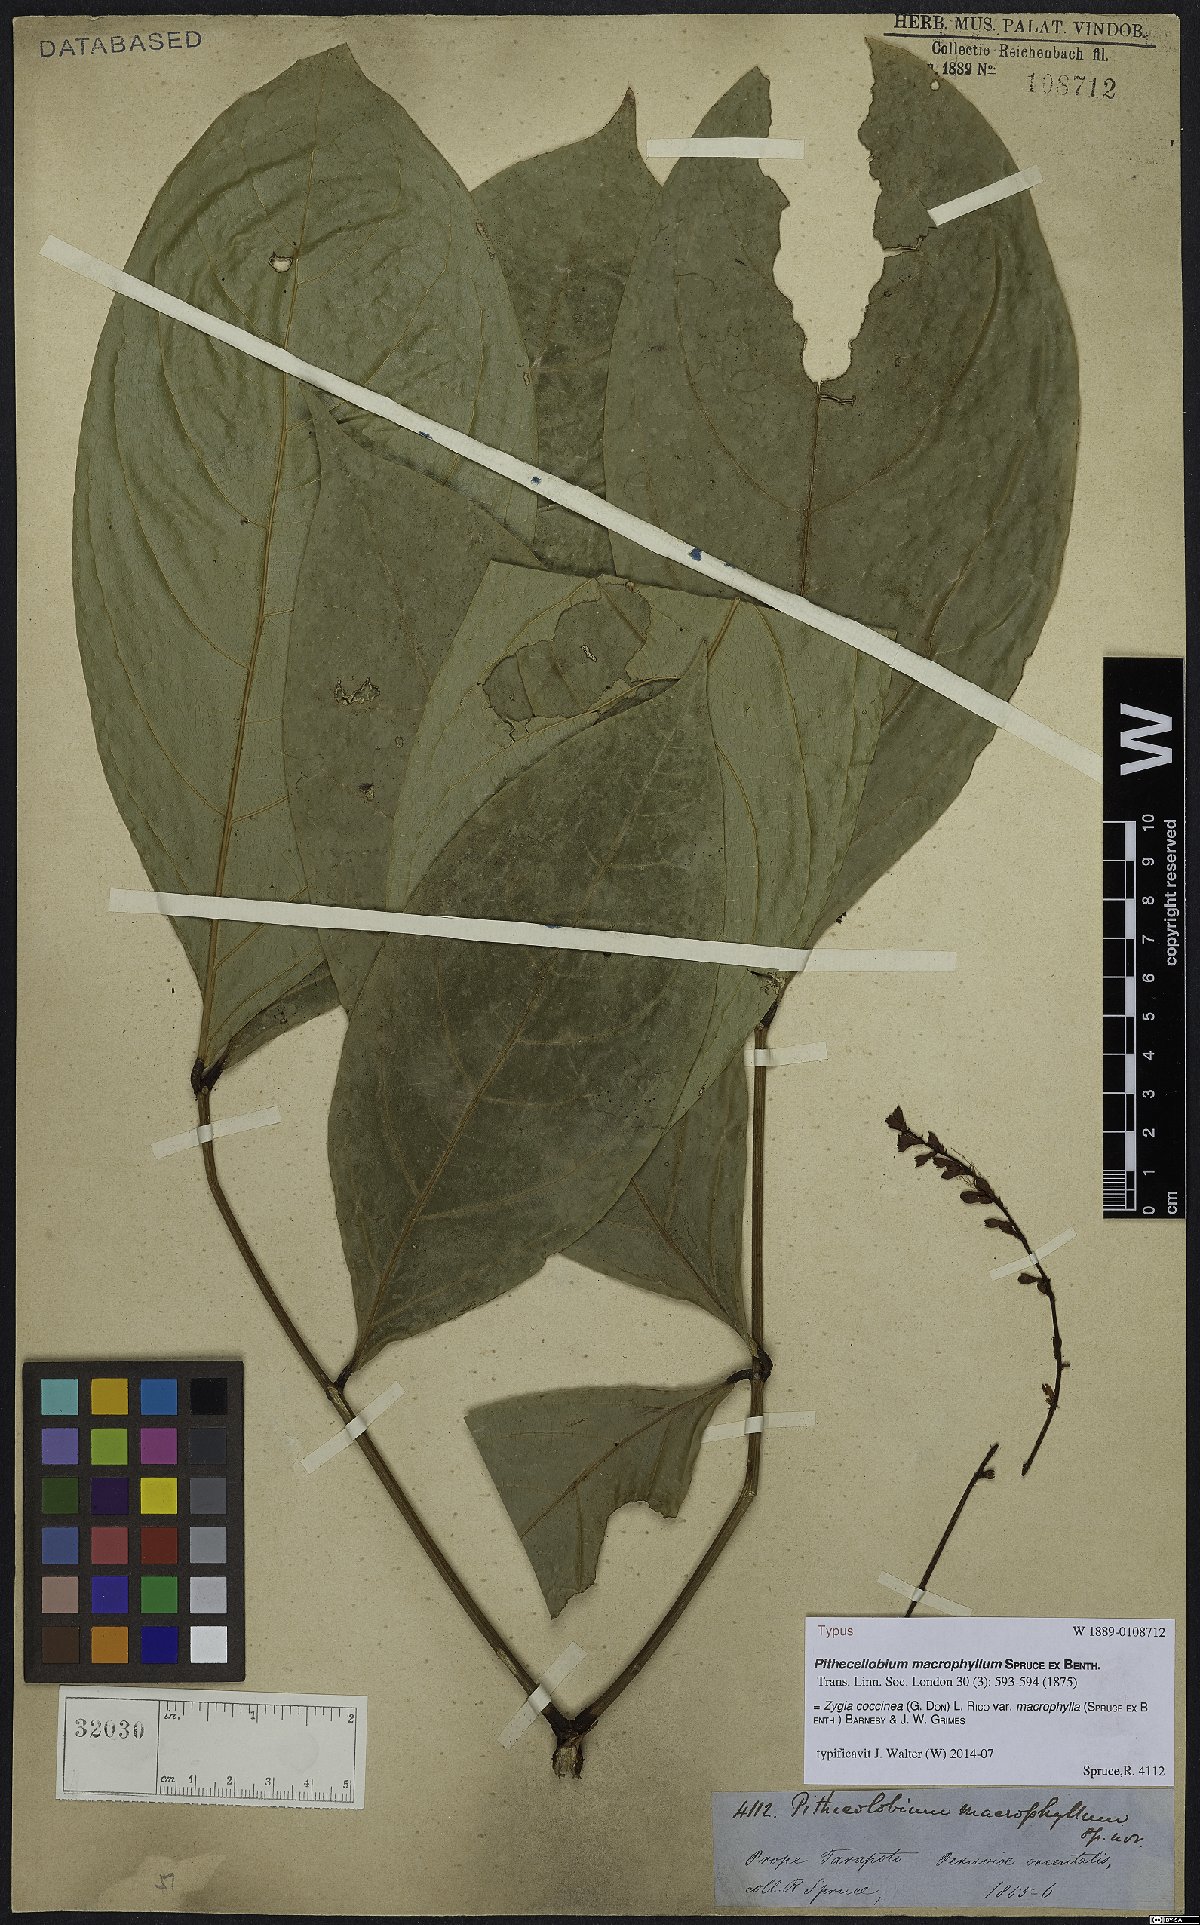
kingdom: Plantae
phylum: Tracheophyta
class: Magnoliopsida
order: Fabales
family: Fabaceae
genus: Zygia
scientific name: Zygia coccinea
